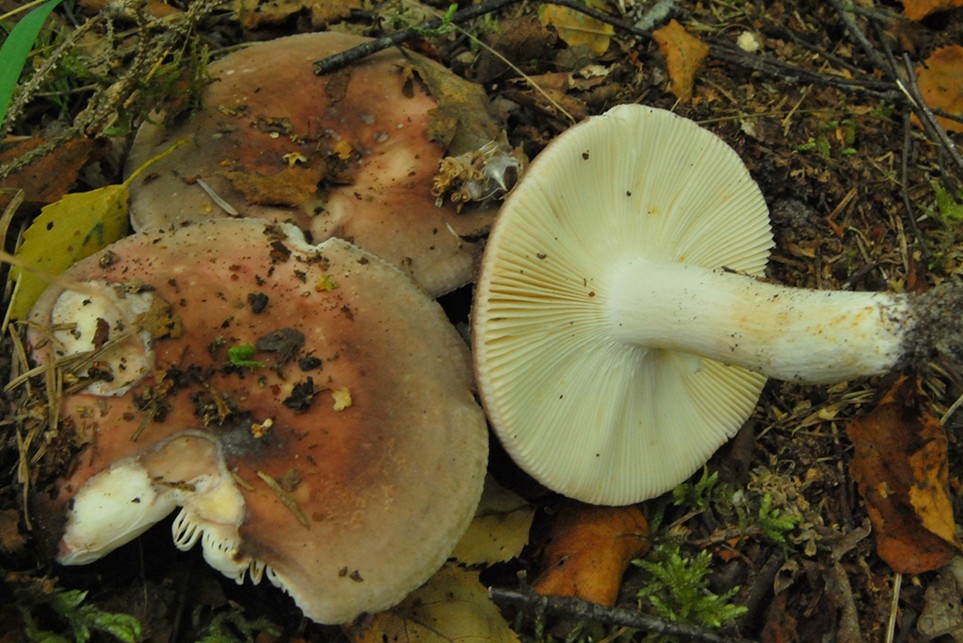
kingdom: Fungi
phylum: Basidiomycota
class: Agaricomycetes
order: Russulales
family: Russulaceae
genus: Russula
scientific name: Russula vesca
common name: spiselig skørhat
